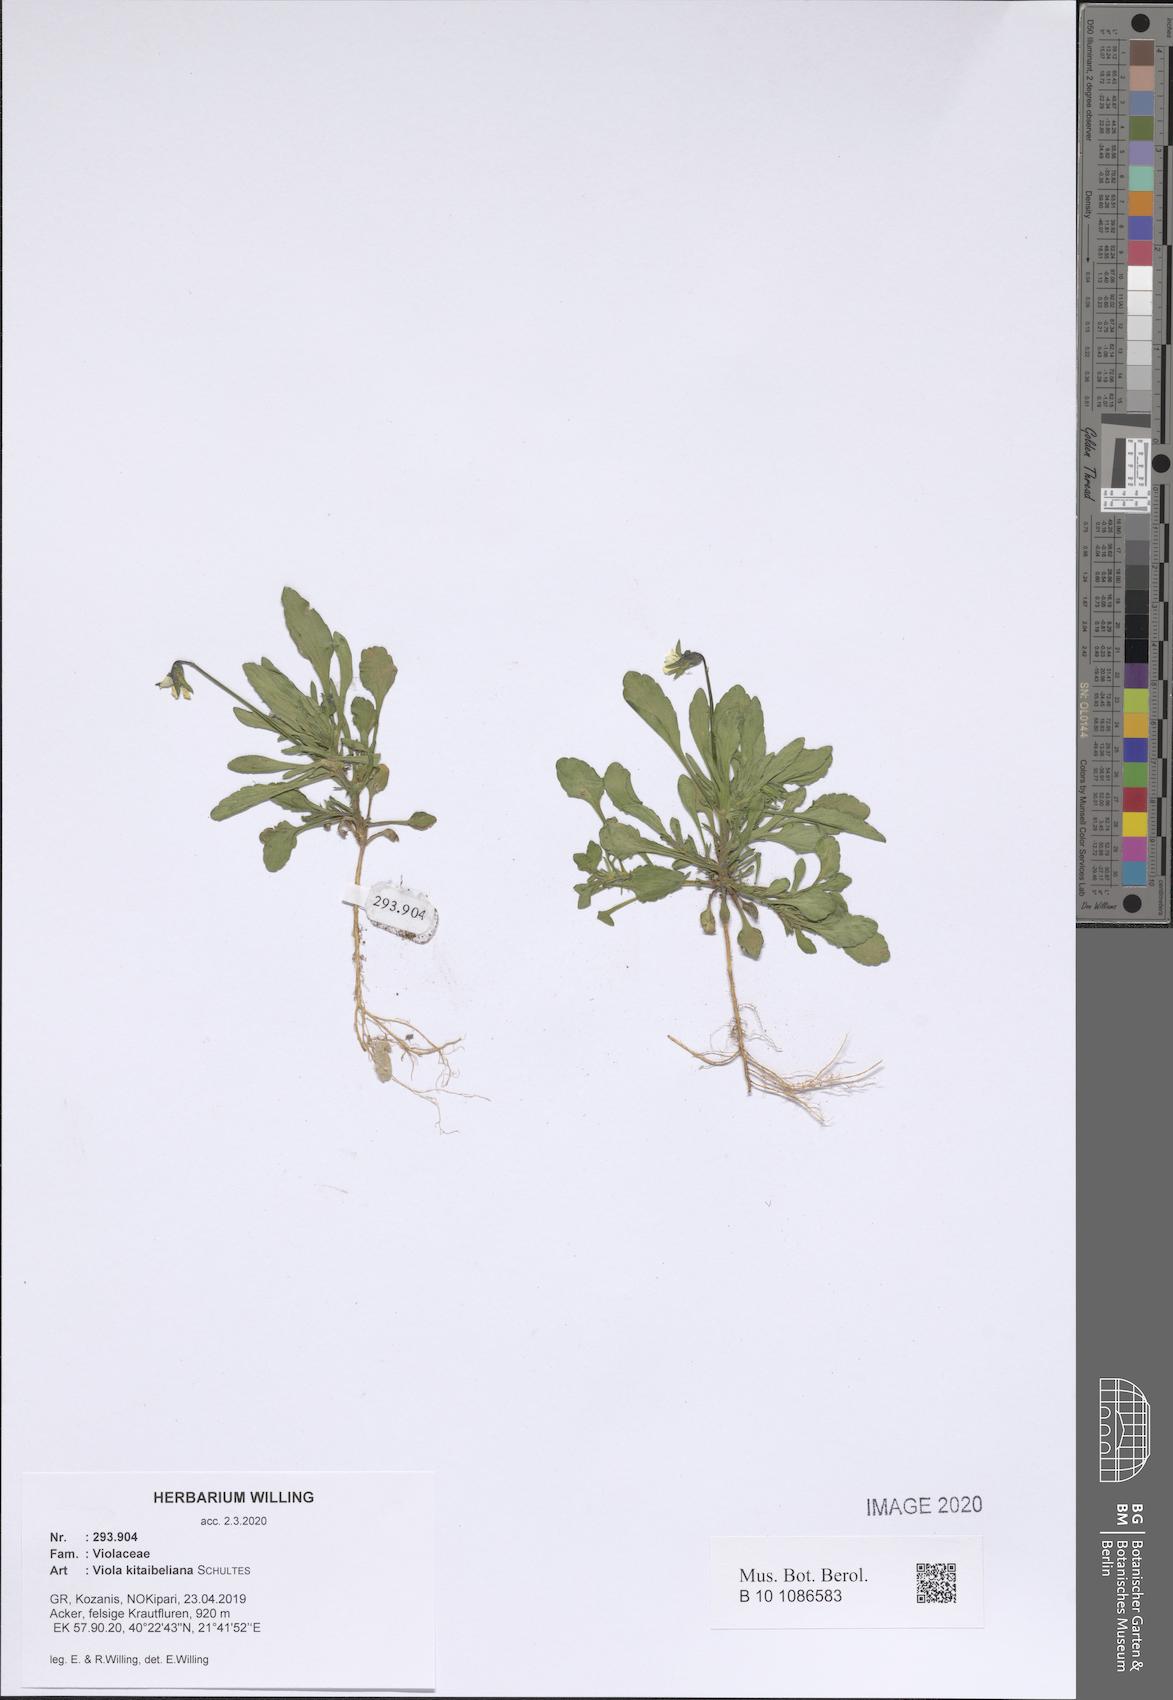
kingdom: Plantae
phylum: Tracheophyta
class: Magnoliopsida
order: Malpighiales
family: Violaceae
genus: Viola
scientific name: Viola kitaibeliana
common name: Dwarf pansy
